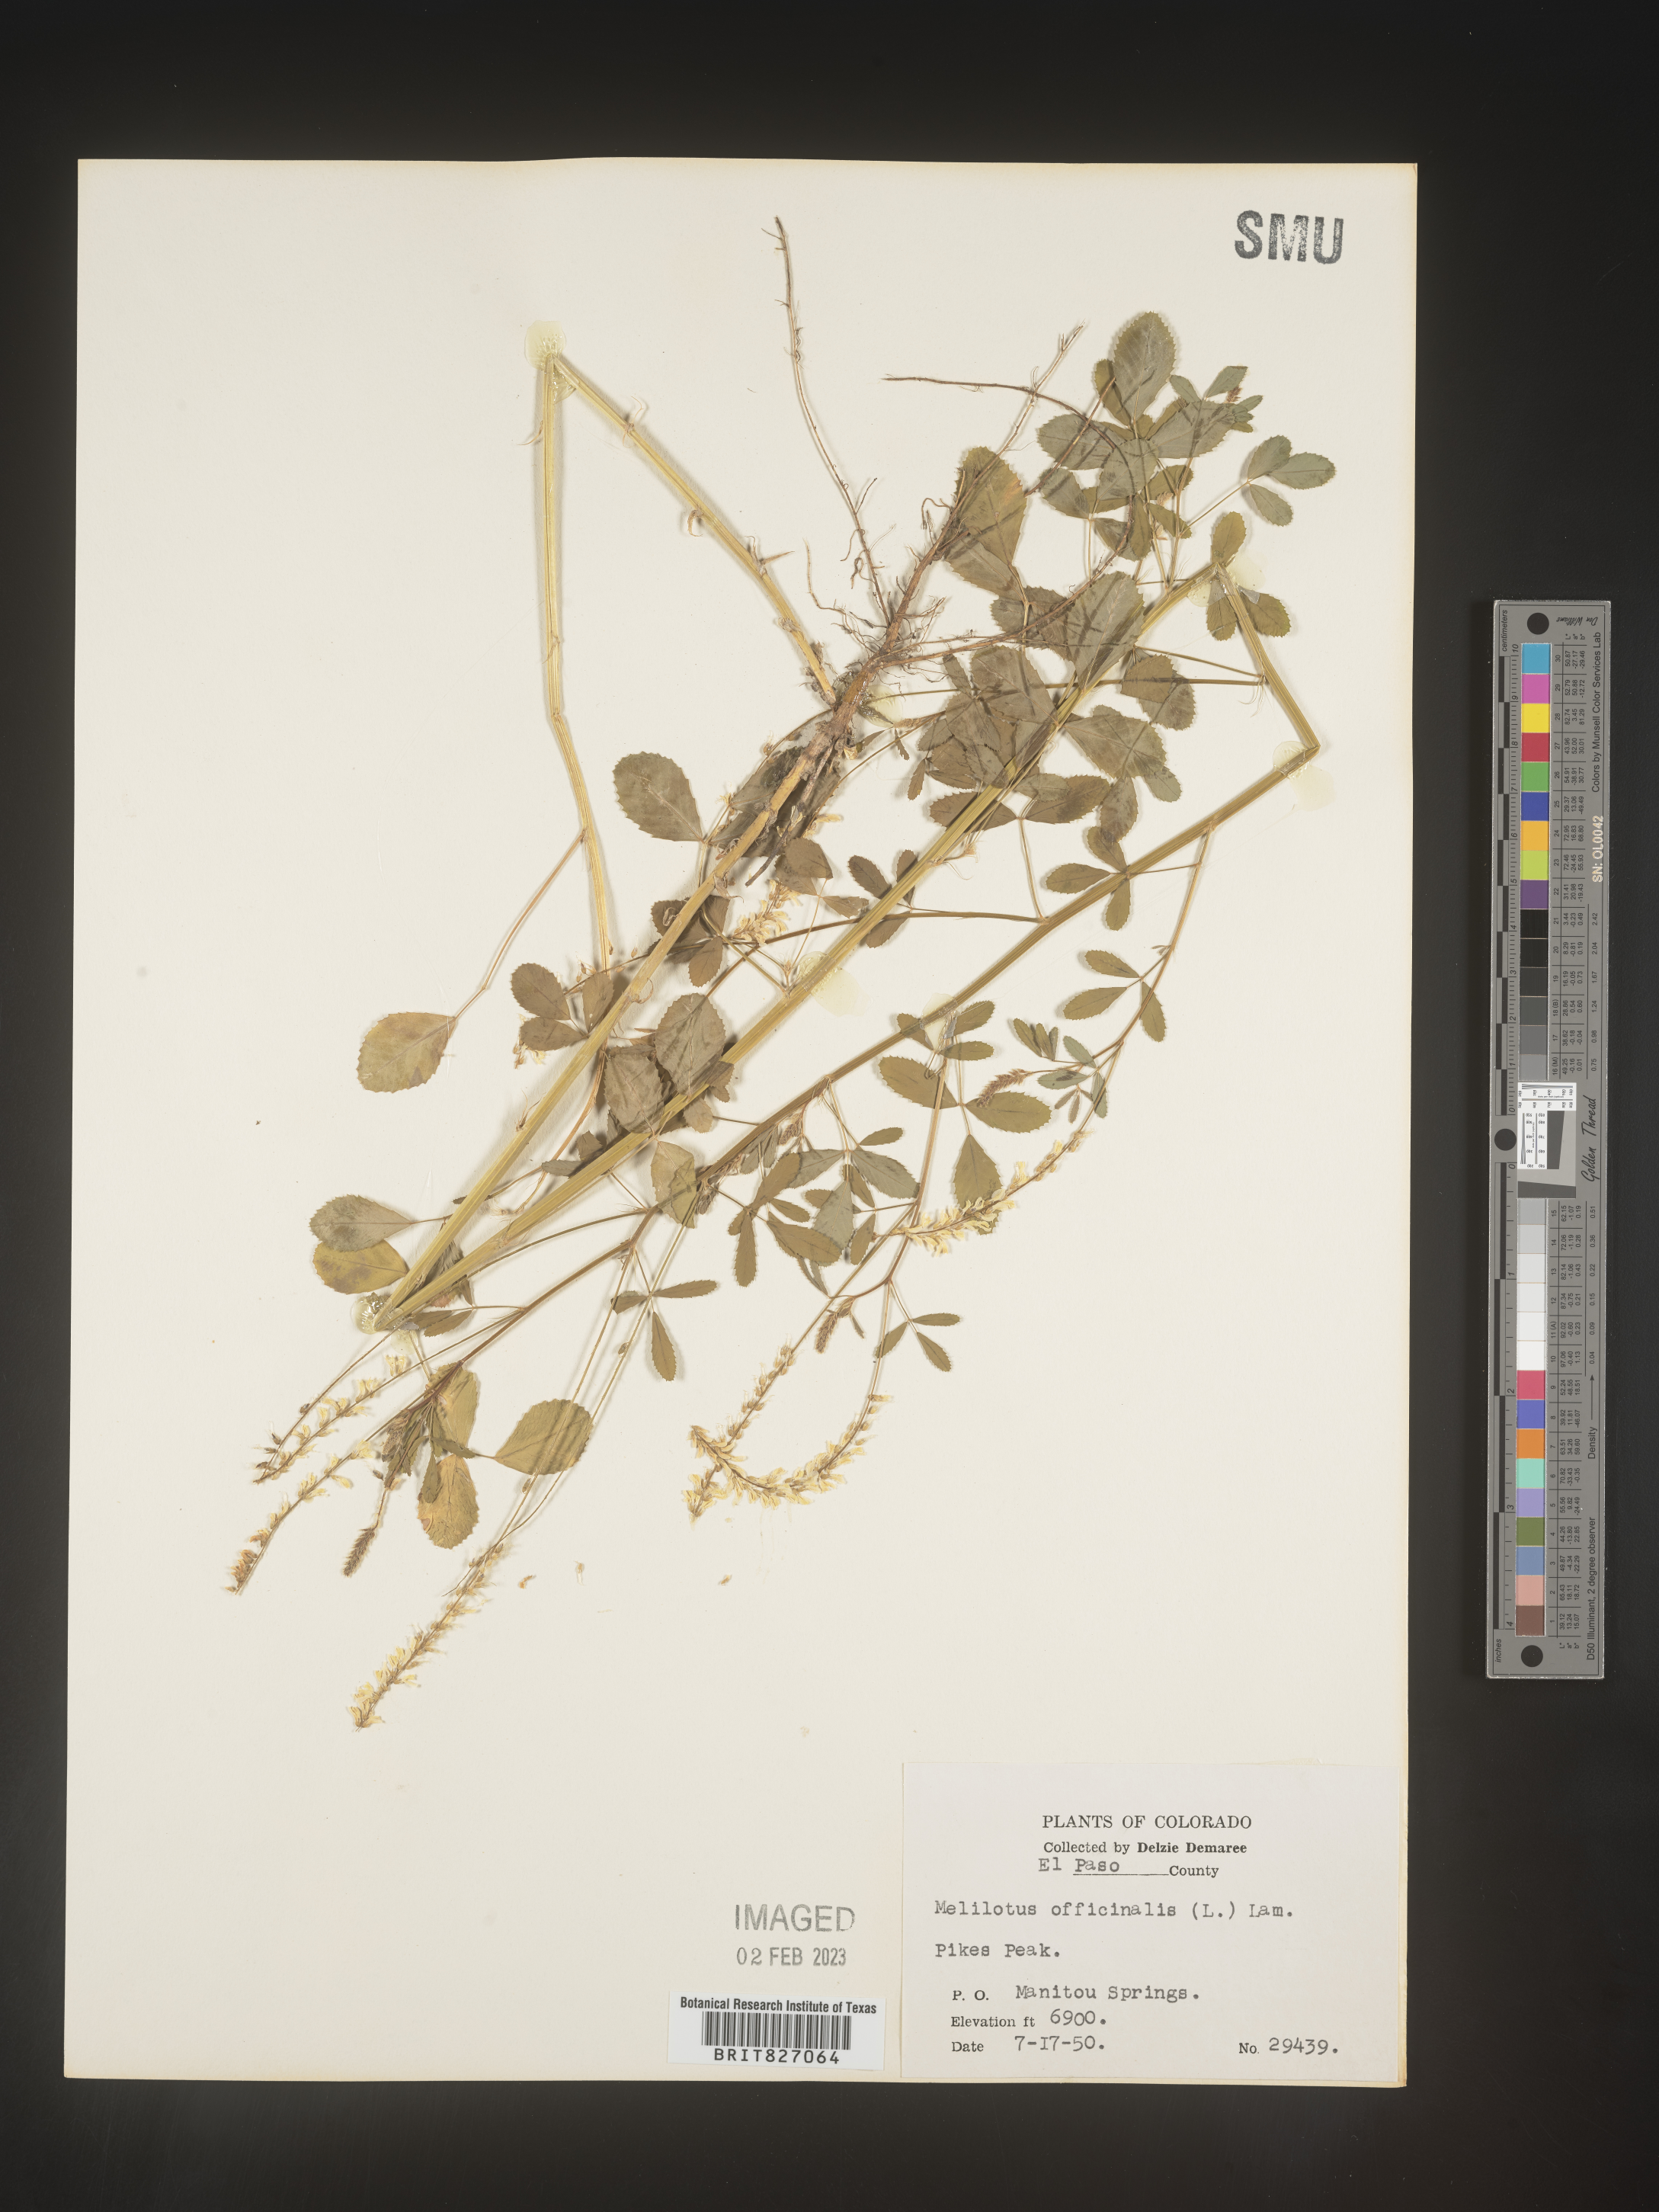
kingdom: Plantae
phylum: Tracheophyta
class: Magnoliopsida
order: Fabales
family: Fabaceae
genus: Melilotus
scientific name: Melilotus officinalis
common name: Sweetclover
